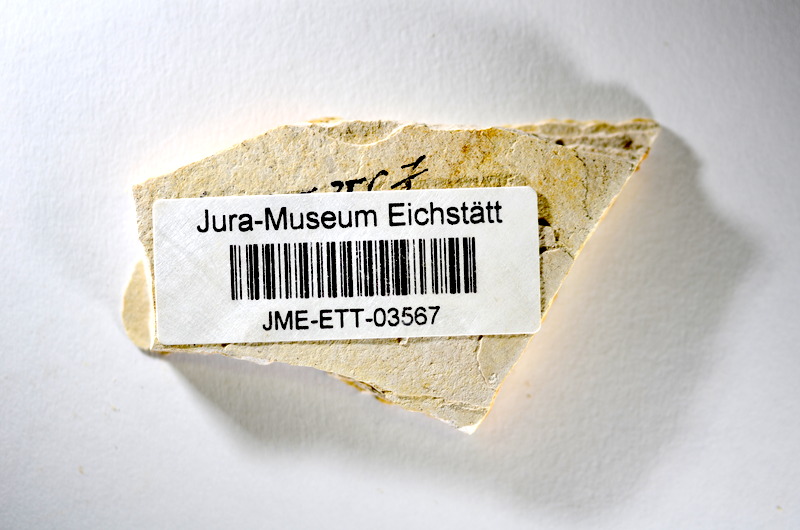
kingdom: Animalia
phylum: Chordata
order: Salmoniformes
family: Orthogonikleithridae
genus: Orthogonikleithrus
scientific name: Orthogonikleithrus hoelli
